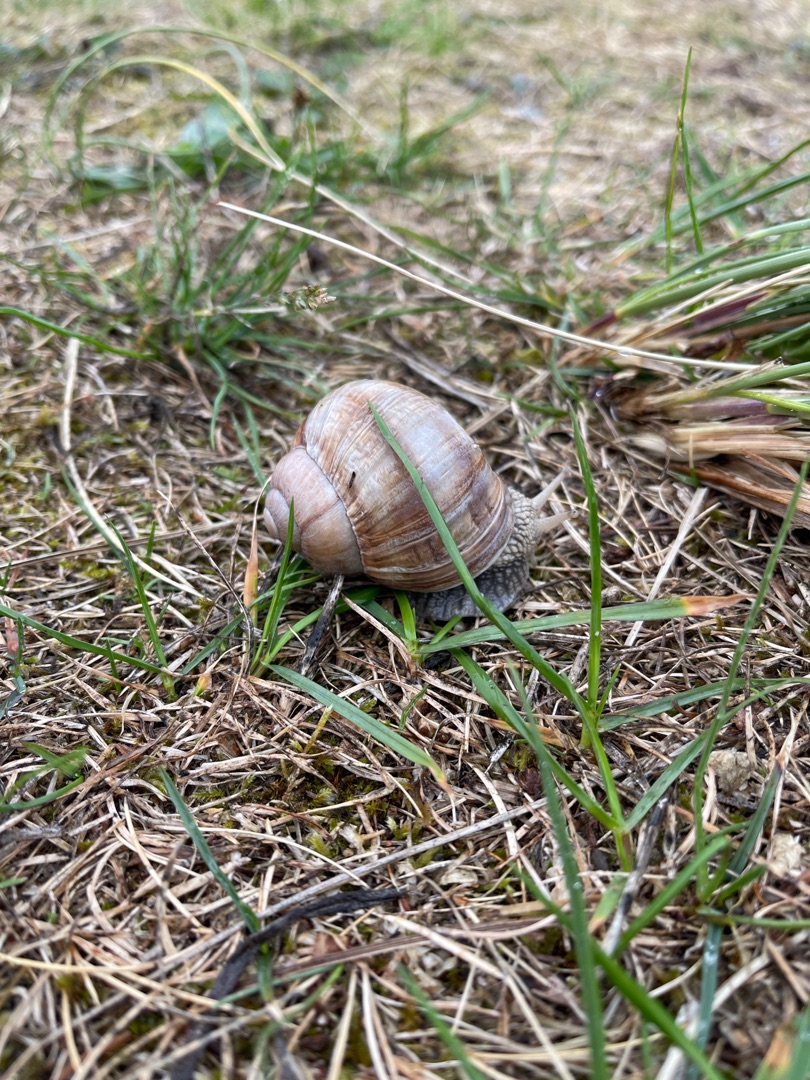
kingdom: Animalia
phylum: Mollusca
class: Gastropoda
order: Stylommatophora
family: Helicidae
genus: Helix
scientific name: Helix pomatia
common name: Vinbjergsnegl
